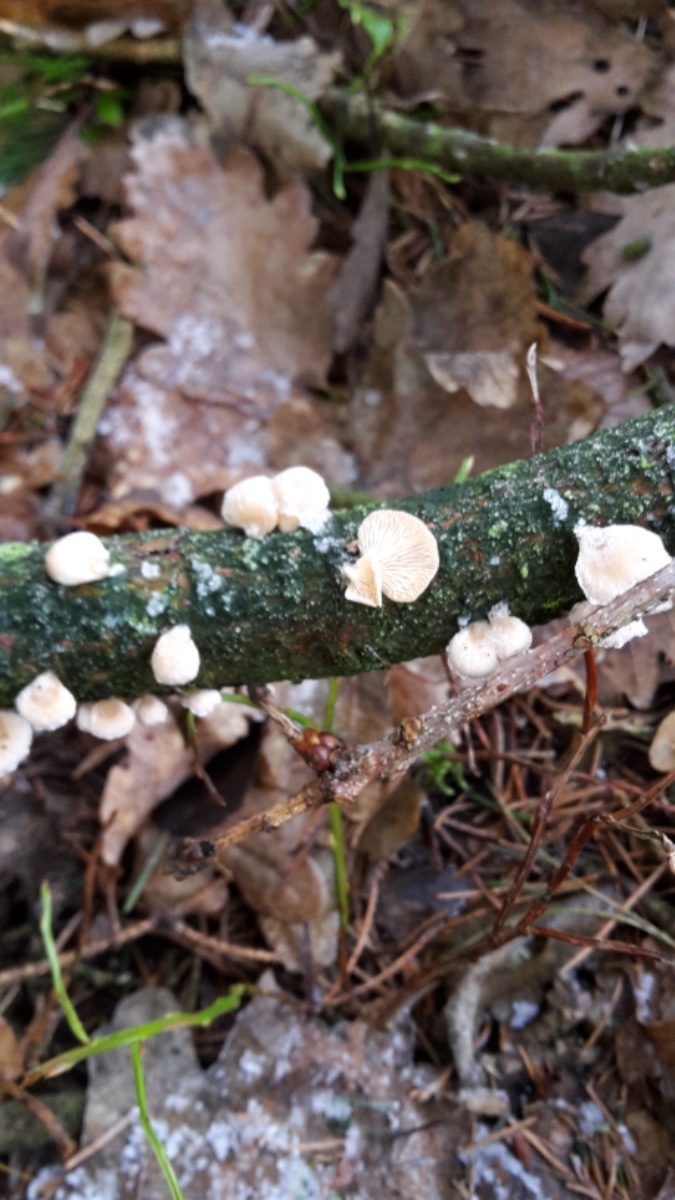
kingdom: Fungi
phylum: Basidiomycota
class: Agaricomycetes
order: Agaricales
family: Mycenaceae
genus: Panellus
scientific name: Panellus mitis
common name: mild epaulethat
